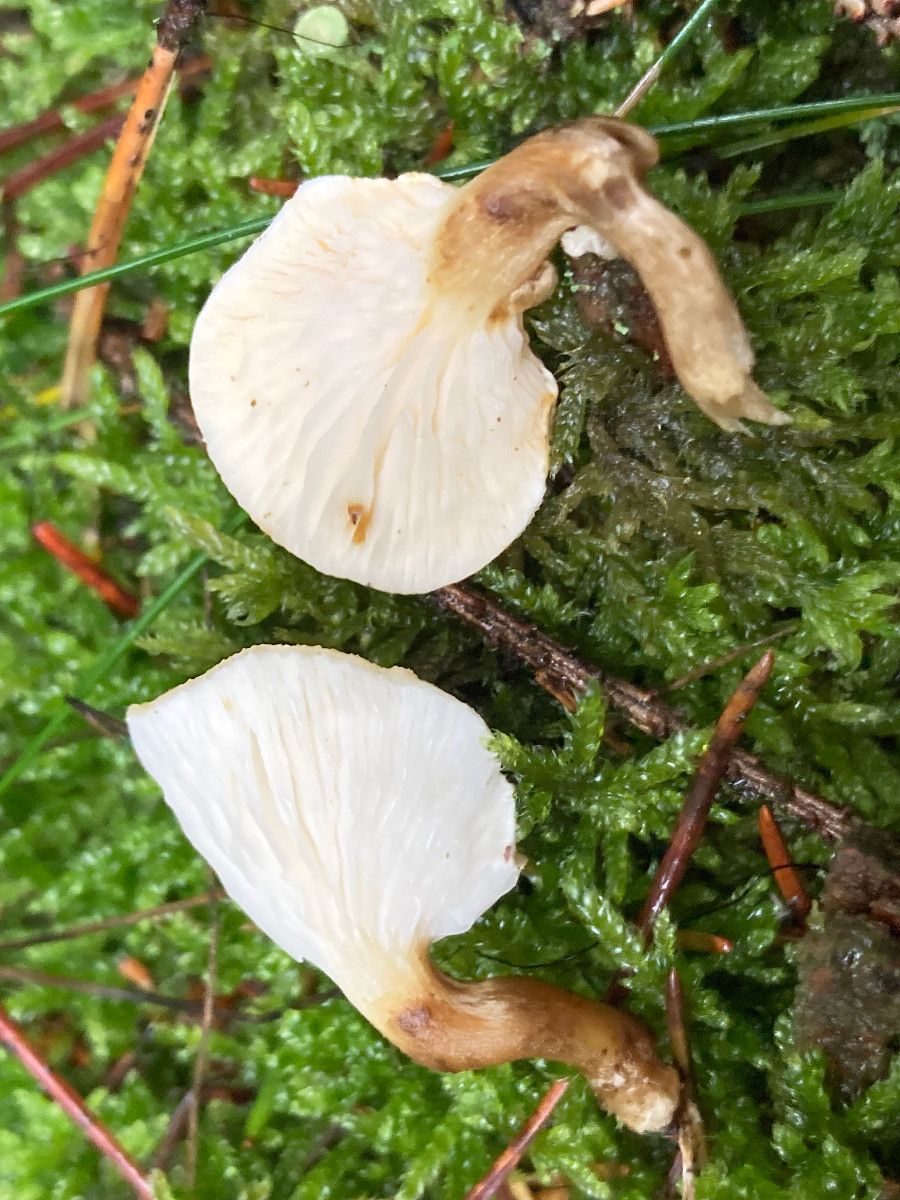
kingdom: Fungi
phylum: Basidiomycota
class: Agaricomycetes
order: Boletales
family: Hygrophoropsidaceae
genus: Hygrophoropsis
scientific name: Hygrophoropsis pallida
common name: bleg orangekantarel
